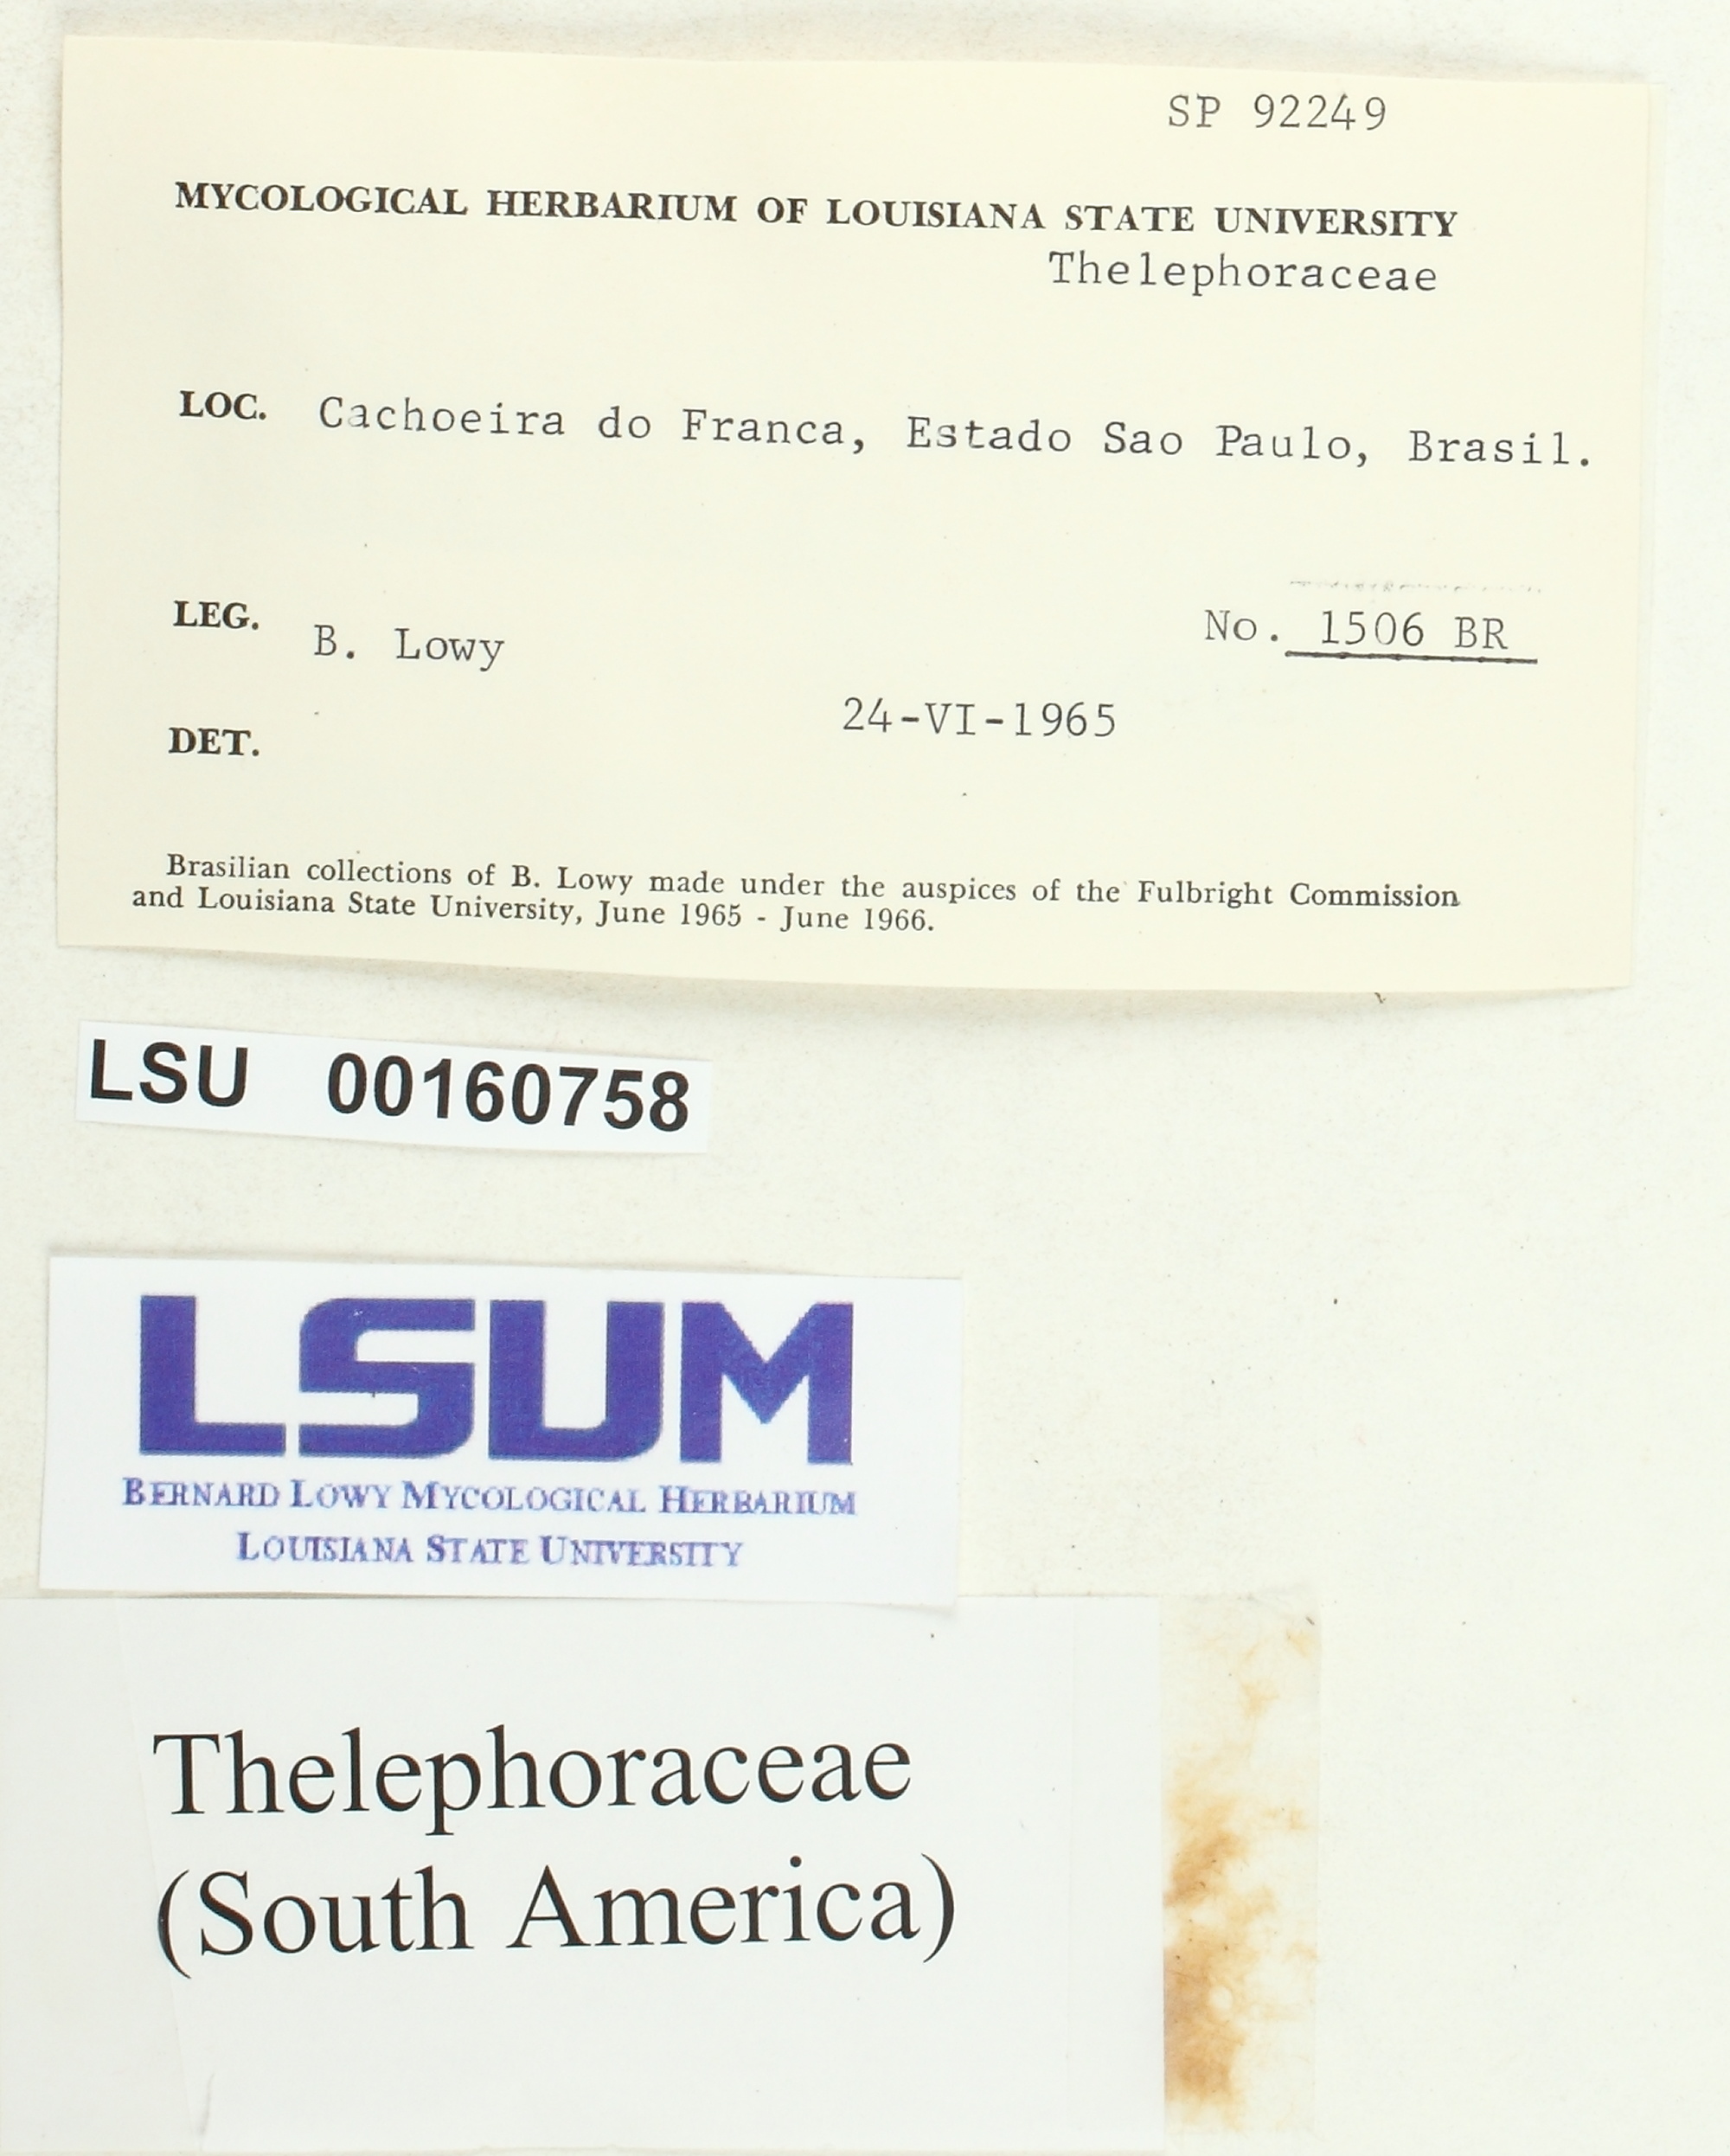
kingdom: Fungi
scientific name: Fungi
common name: Fungi
